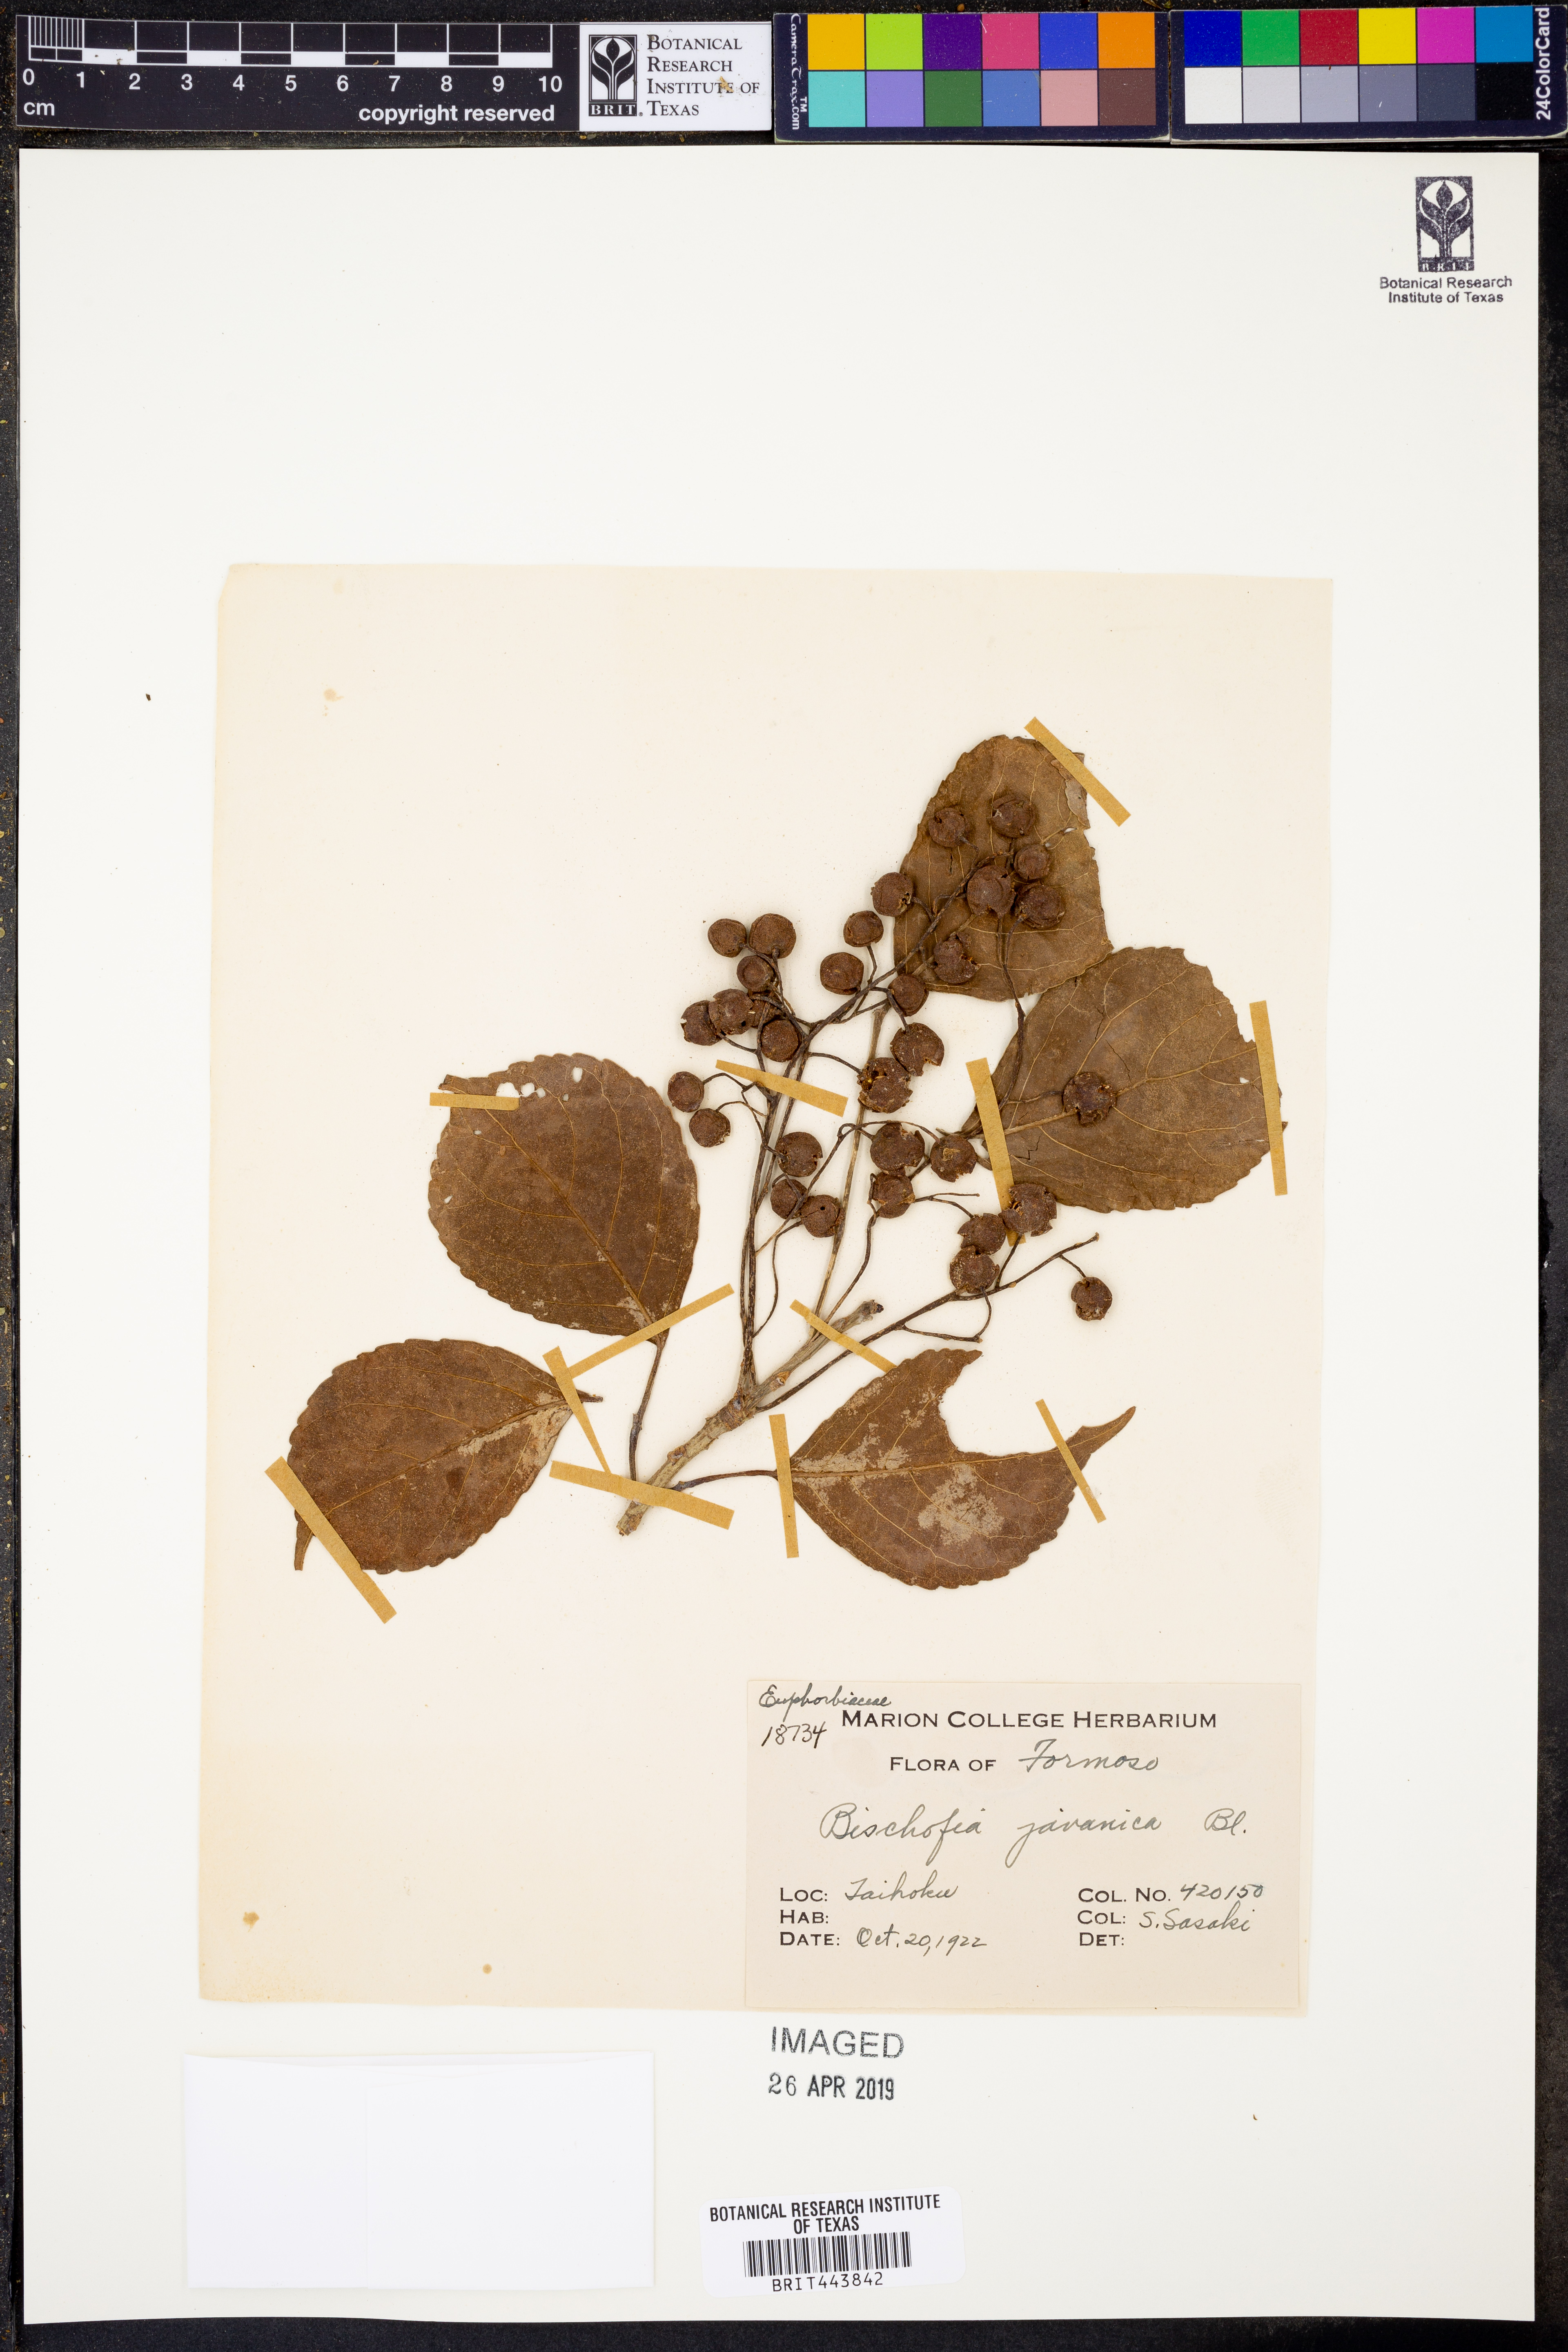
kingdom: Plantae
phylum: Tracheophyta
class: Magnoliopsida
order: Malpighiales
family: Phyllanthaceae
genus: Bischofia
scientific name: Bischofia javanica
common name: Javanese bishopwood
